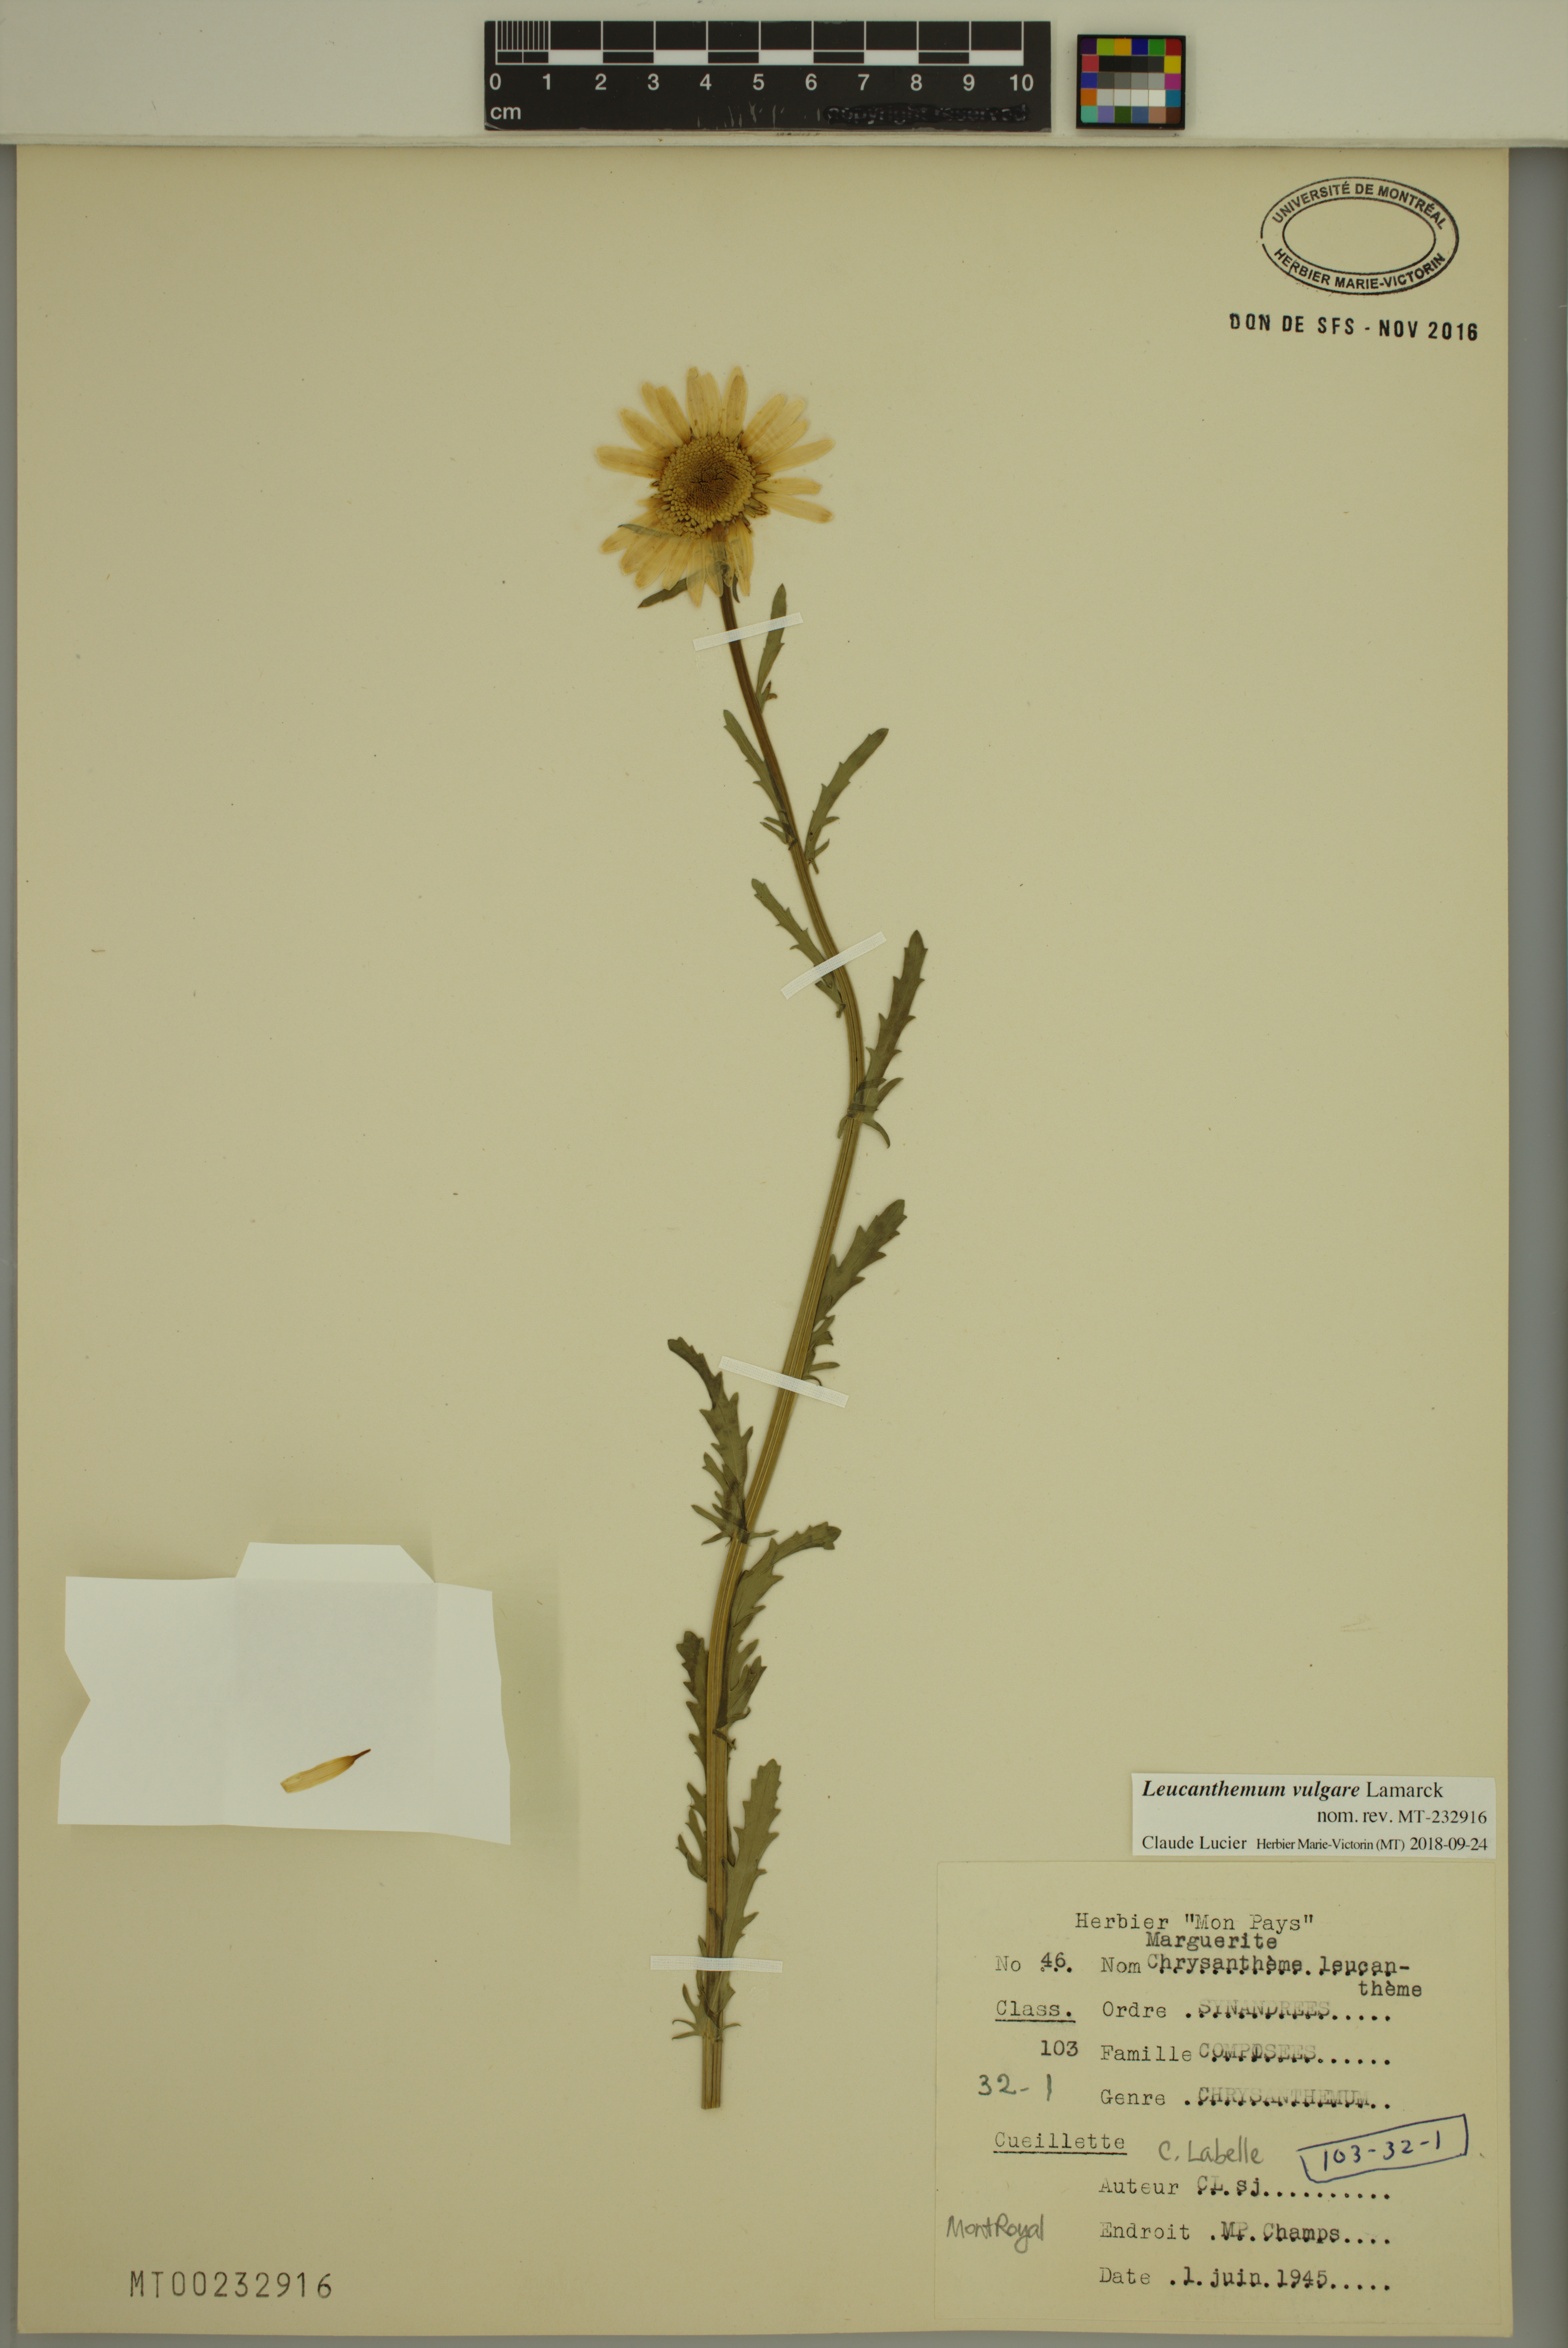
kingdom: Plantae
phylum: Tracheophyta
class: Magnoliopsida
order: Asterales
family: Asteraceae
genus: Leucanthemum
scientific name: Leucanthemum vulgare
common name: Oxeye daisy
